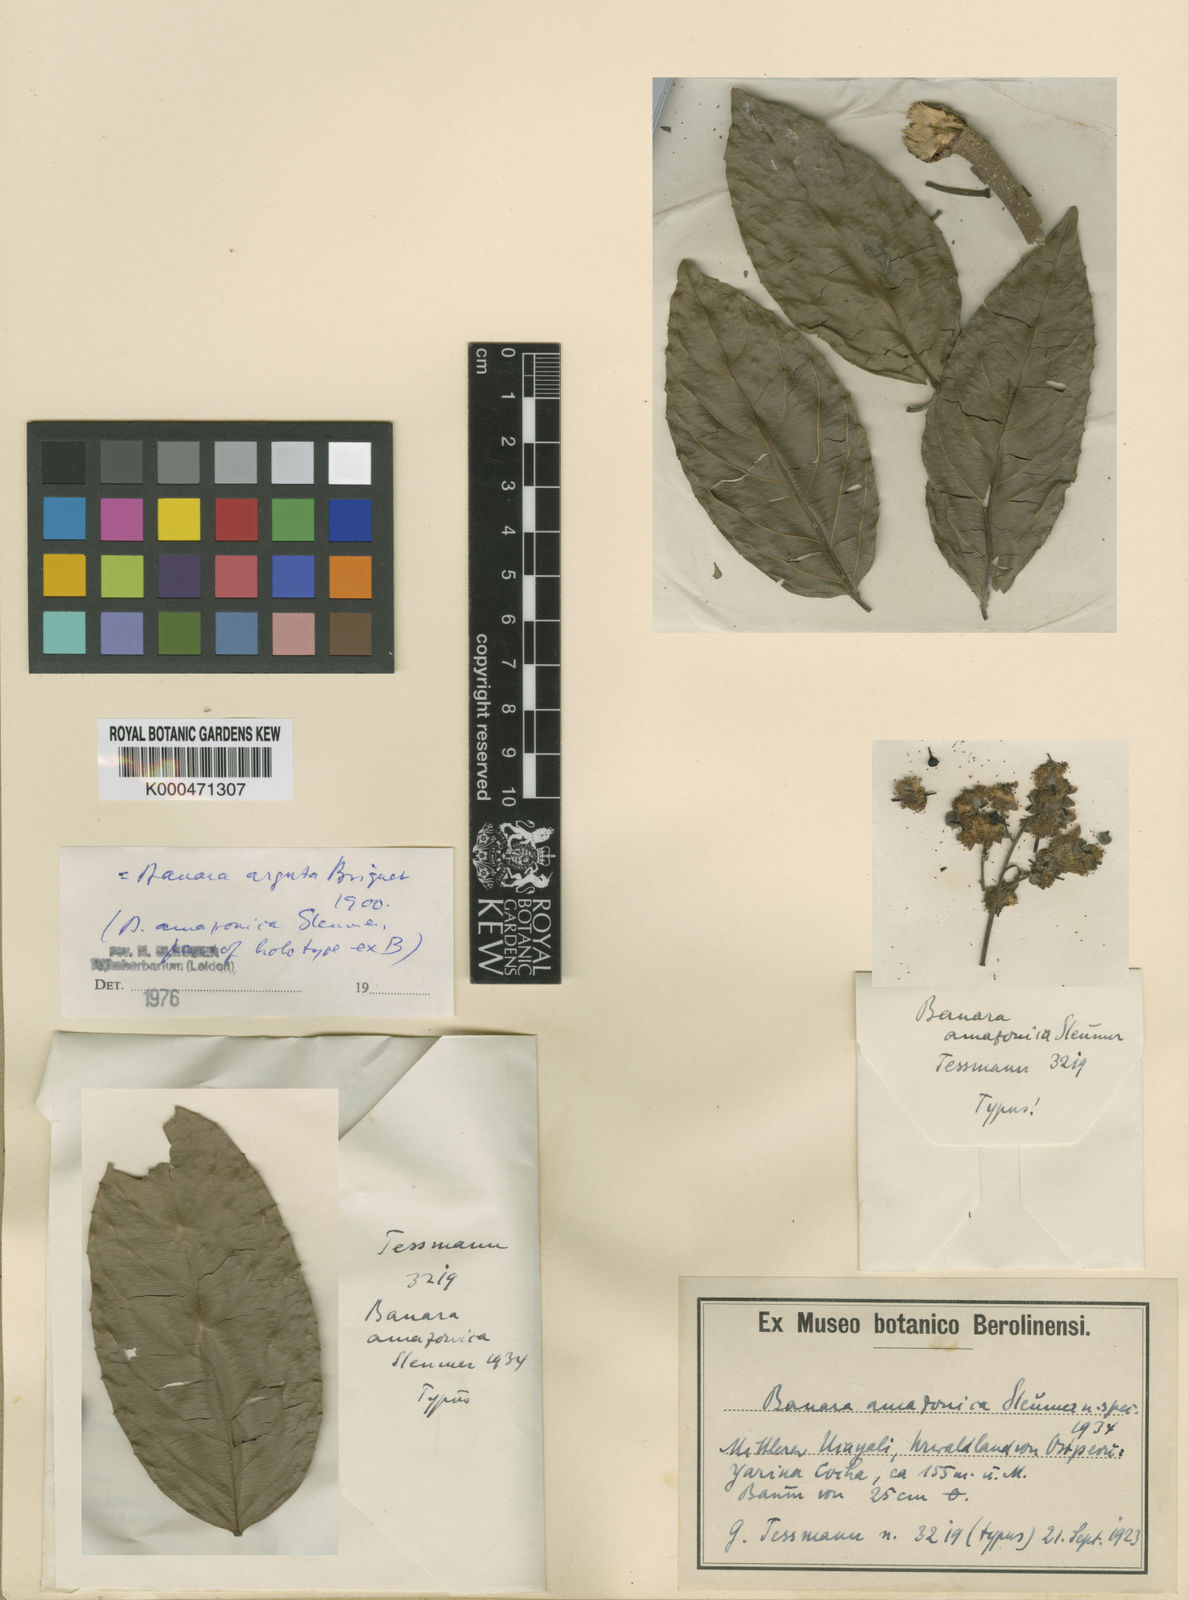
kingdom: Plantae
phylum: Tracheophyta
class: Magnoliopsida
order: Malpighiales
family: Salicaceae
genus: Banara
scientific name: Banara arguta
